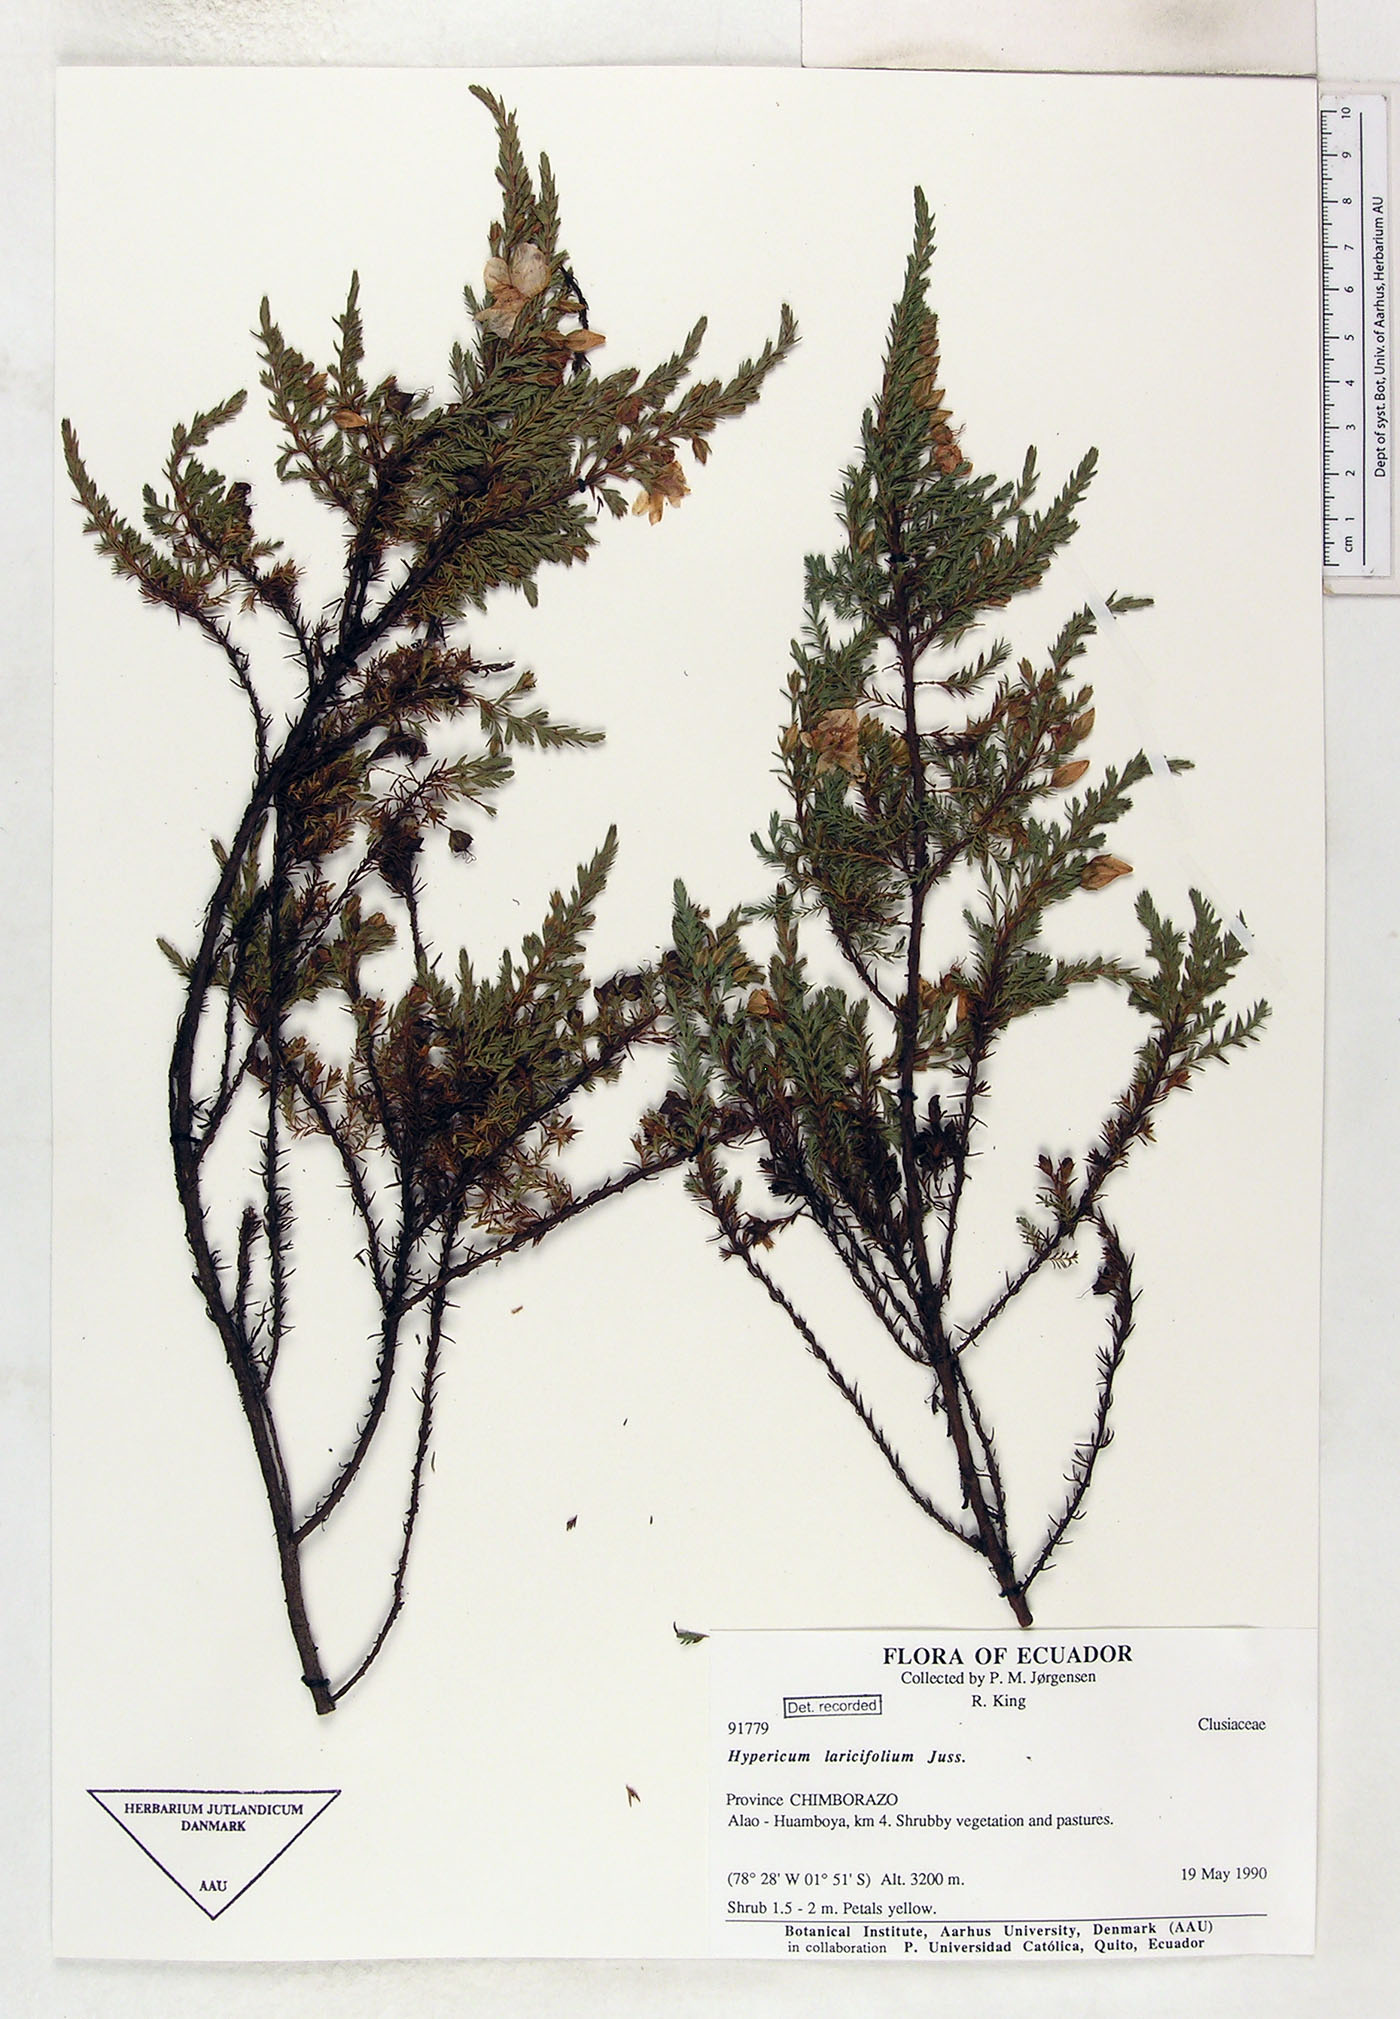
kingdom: Plantae
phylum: Tracheophyta
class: Magnoliopsida
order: Malpighiales
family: Hypericaceae
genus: Hypericum
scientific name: Hypericum laricifolium
